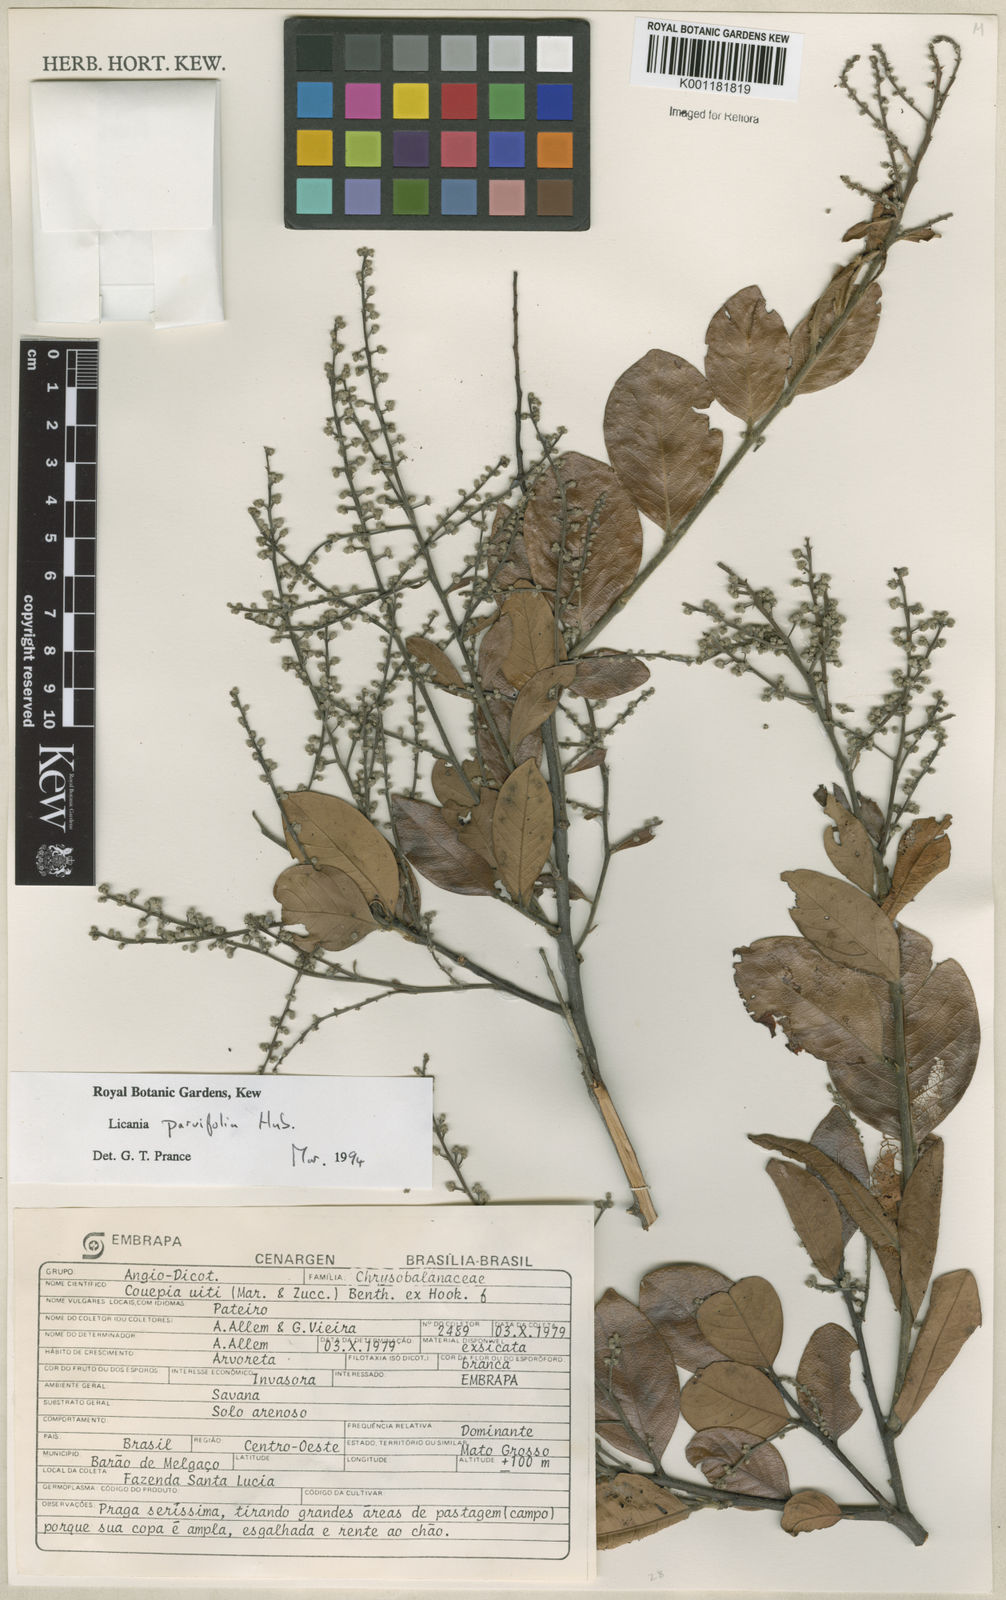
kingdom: Plantae
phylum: Tracheophyta
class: Magnoliopsida
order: Malpighiales
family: Chrysobalanaceae
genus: Licania
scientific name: Licania parvifolia
